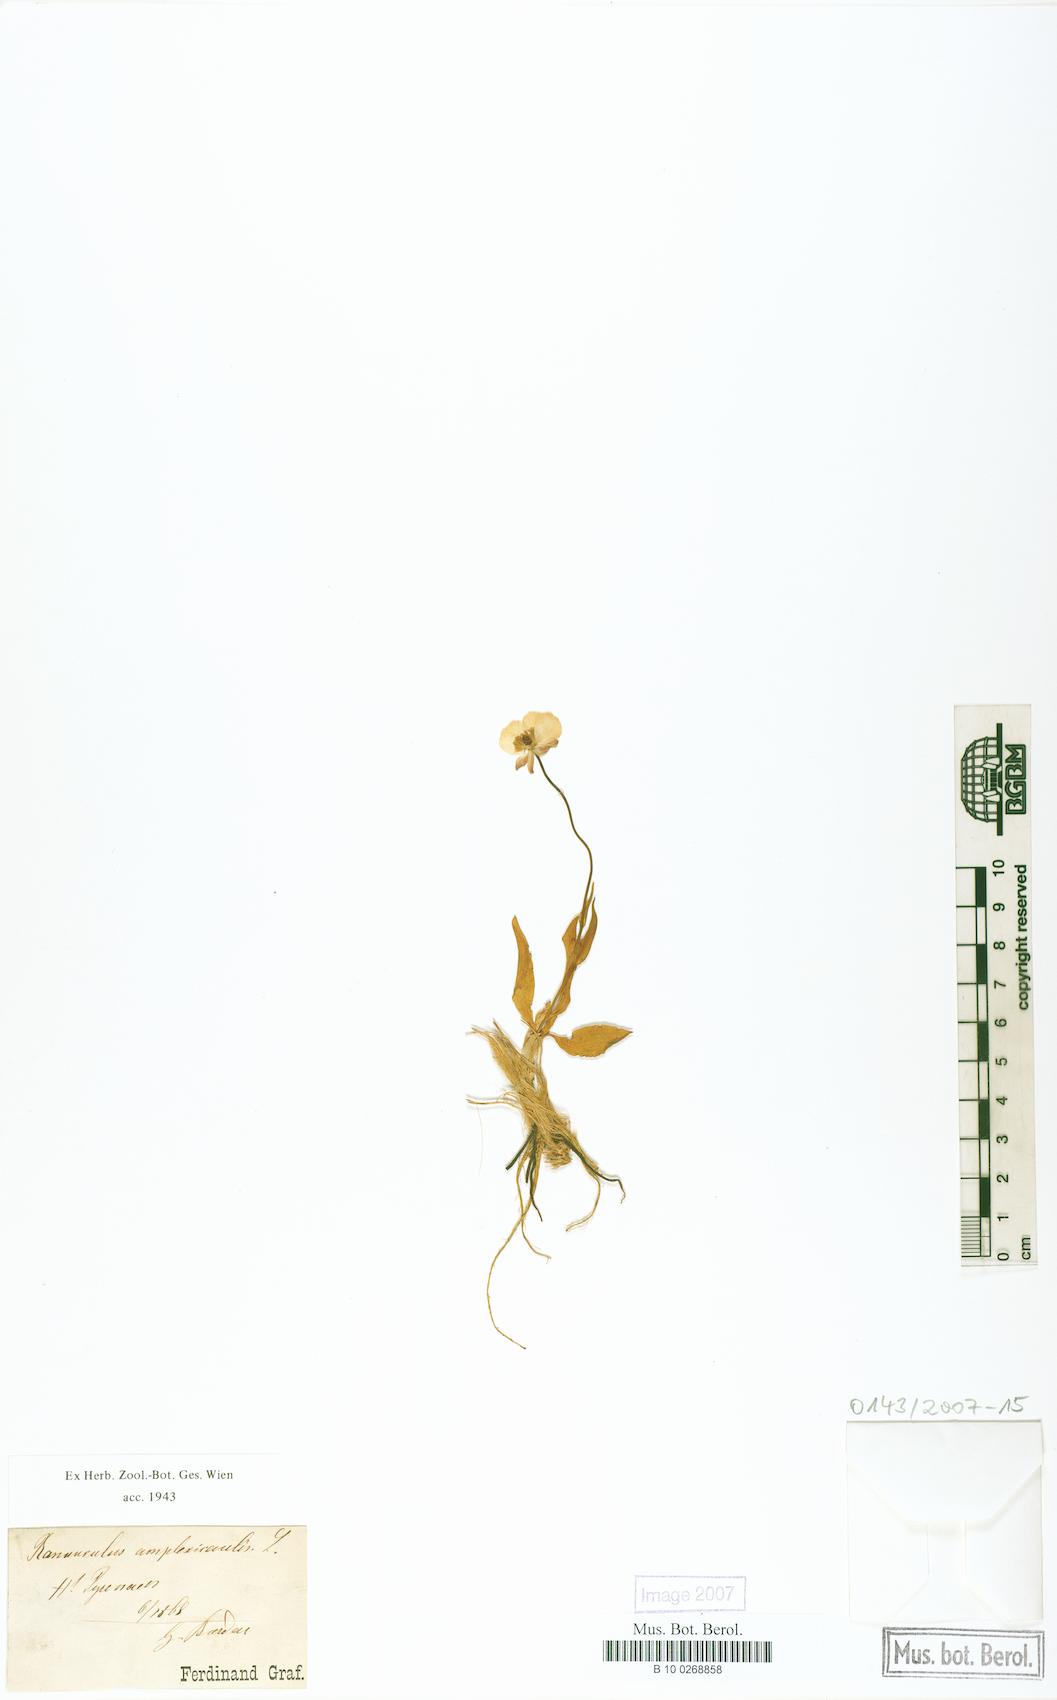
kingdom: Plantae
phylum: Tracheophyta
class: Magnoliopsida
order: Ranunculales
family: Ranunculaceae
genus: Ranunculus
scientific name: Ranunculus amplexicaulis
